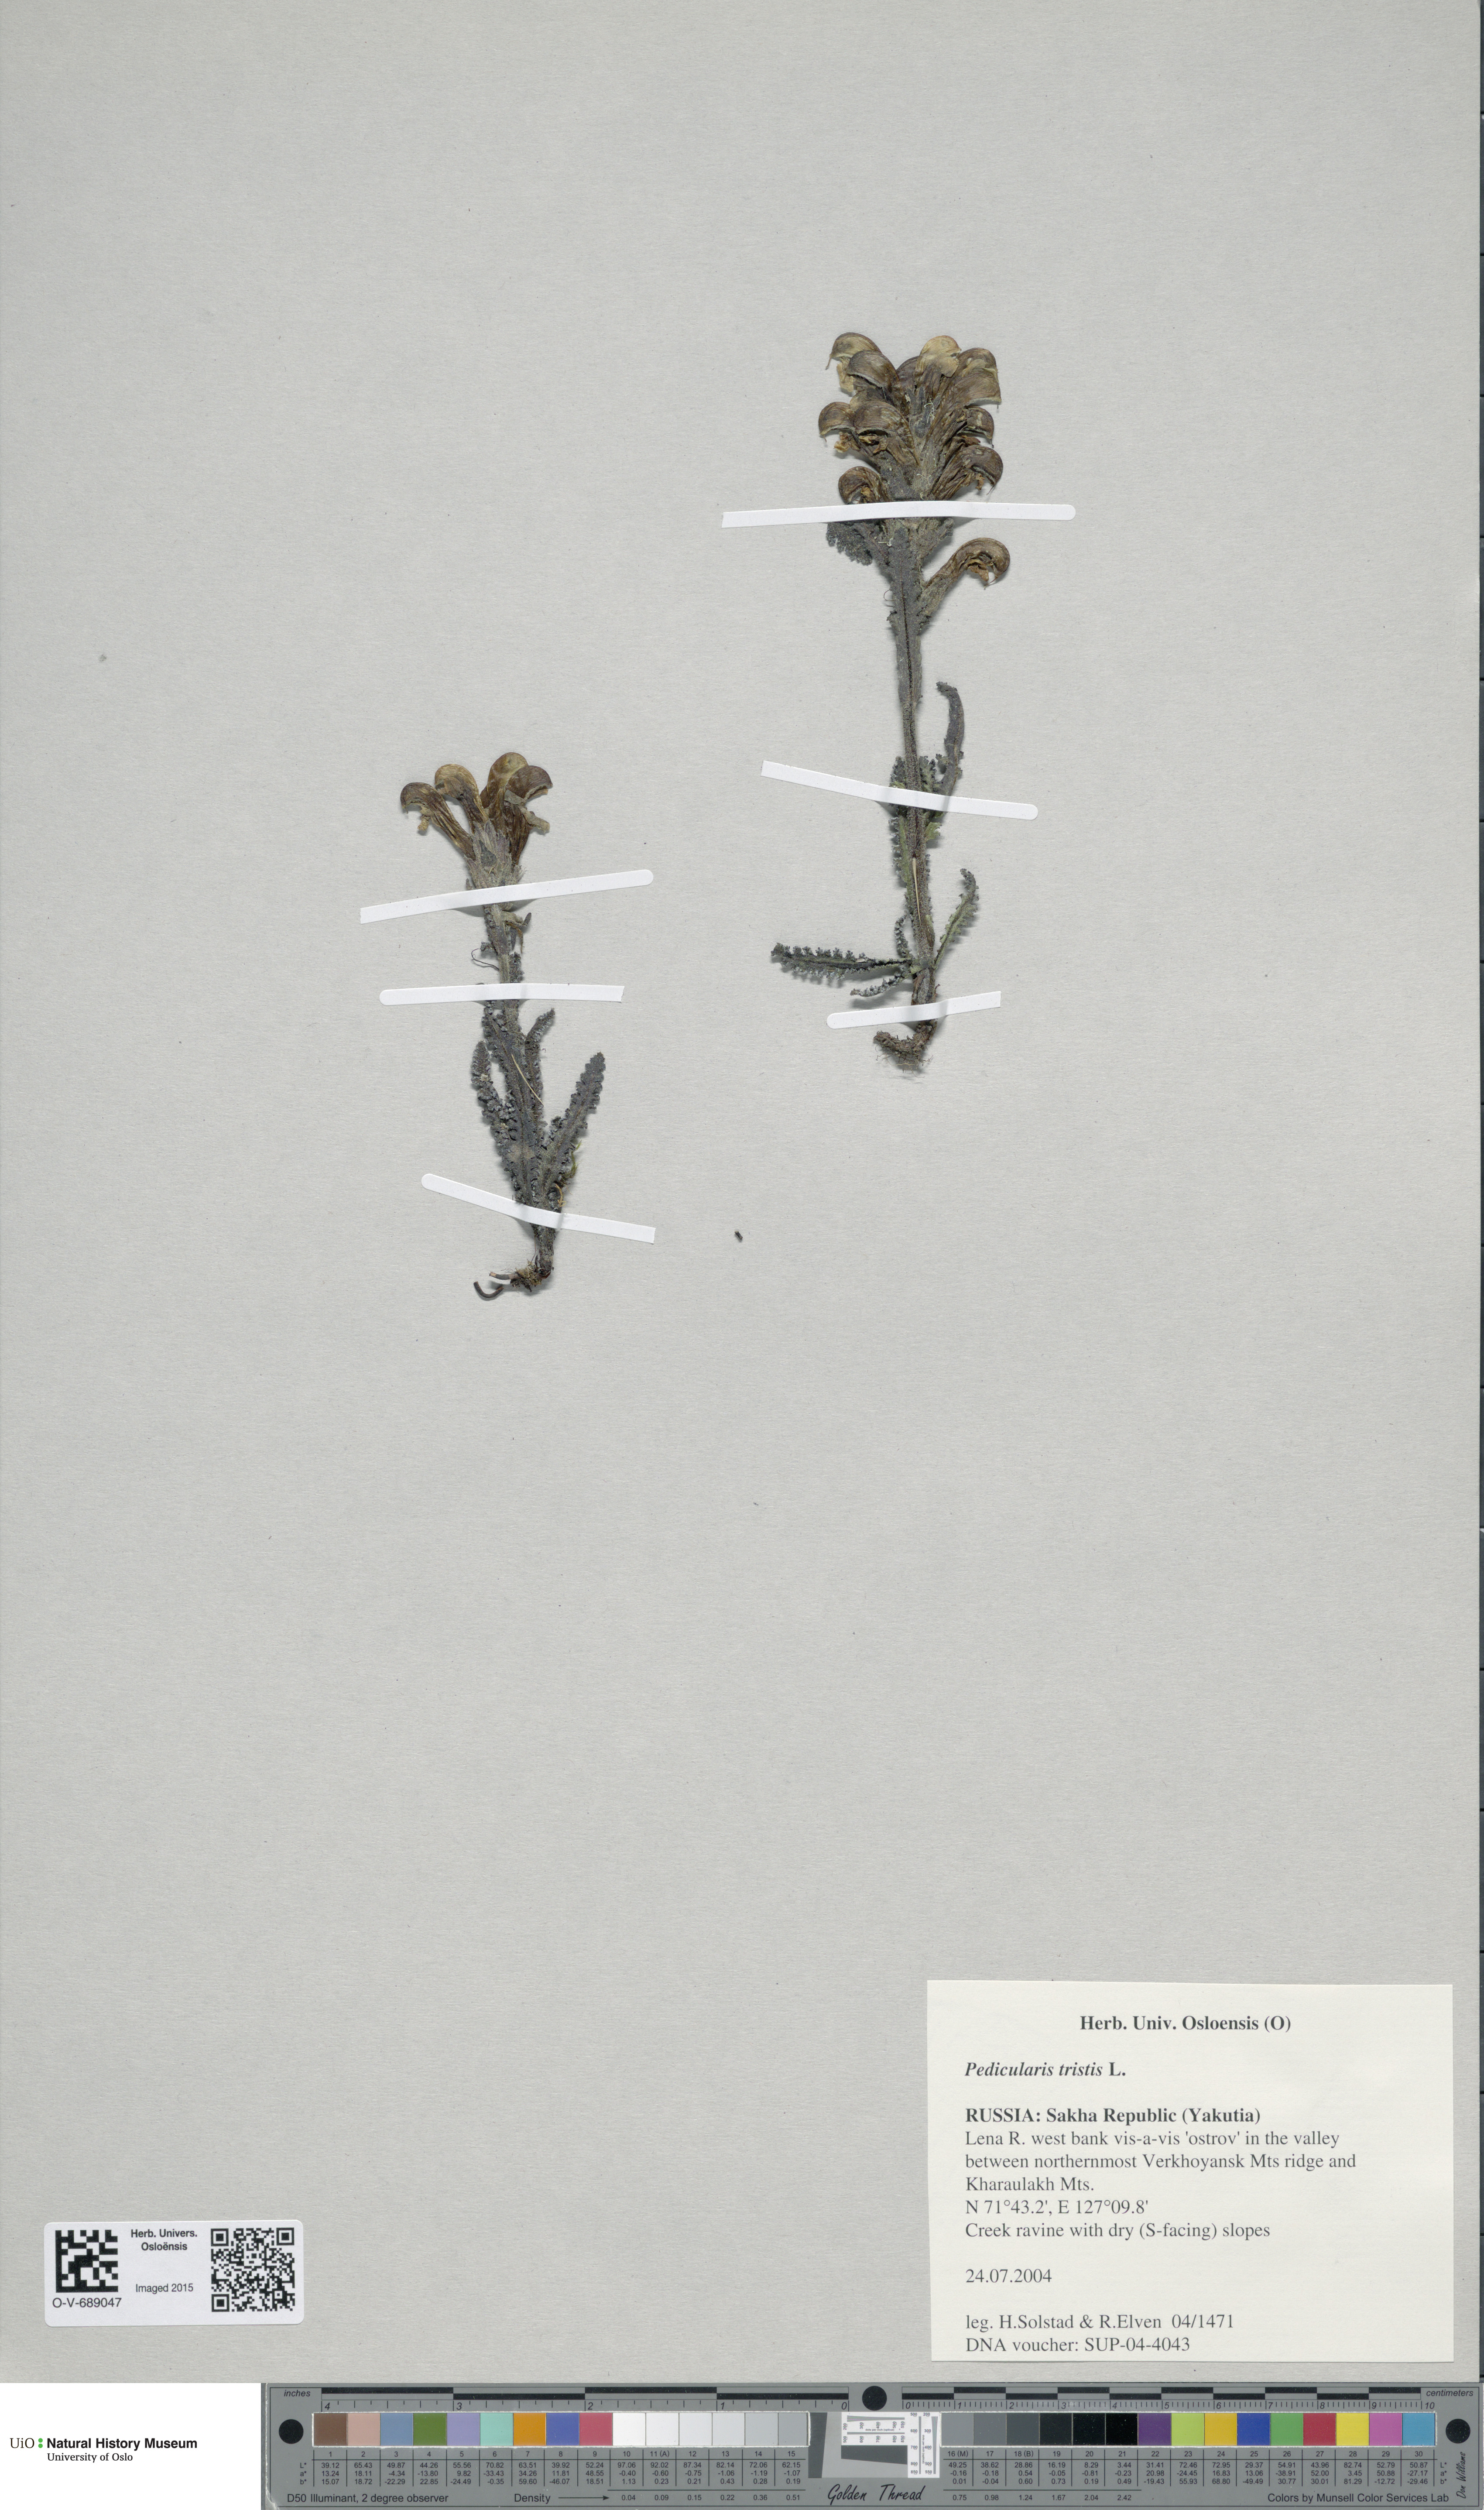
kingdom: Plantae
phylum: Tracheophyta
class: Magnoliopsida
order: Lamiales
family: Orobanchaceae
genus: Pedicularis
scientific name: Pedicularis tristis
